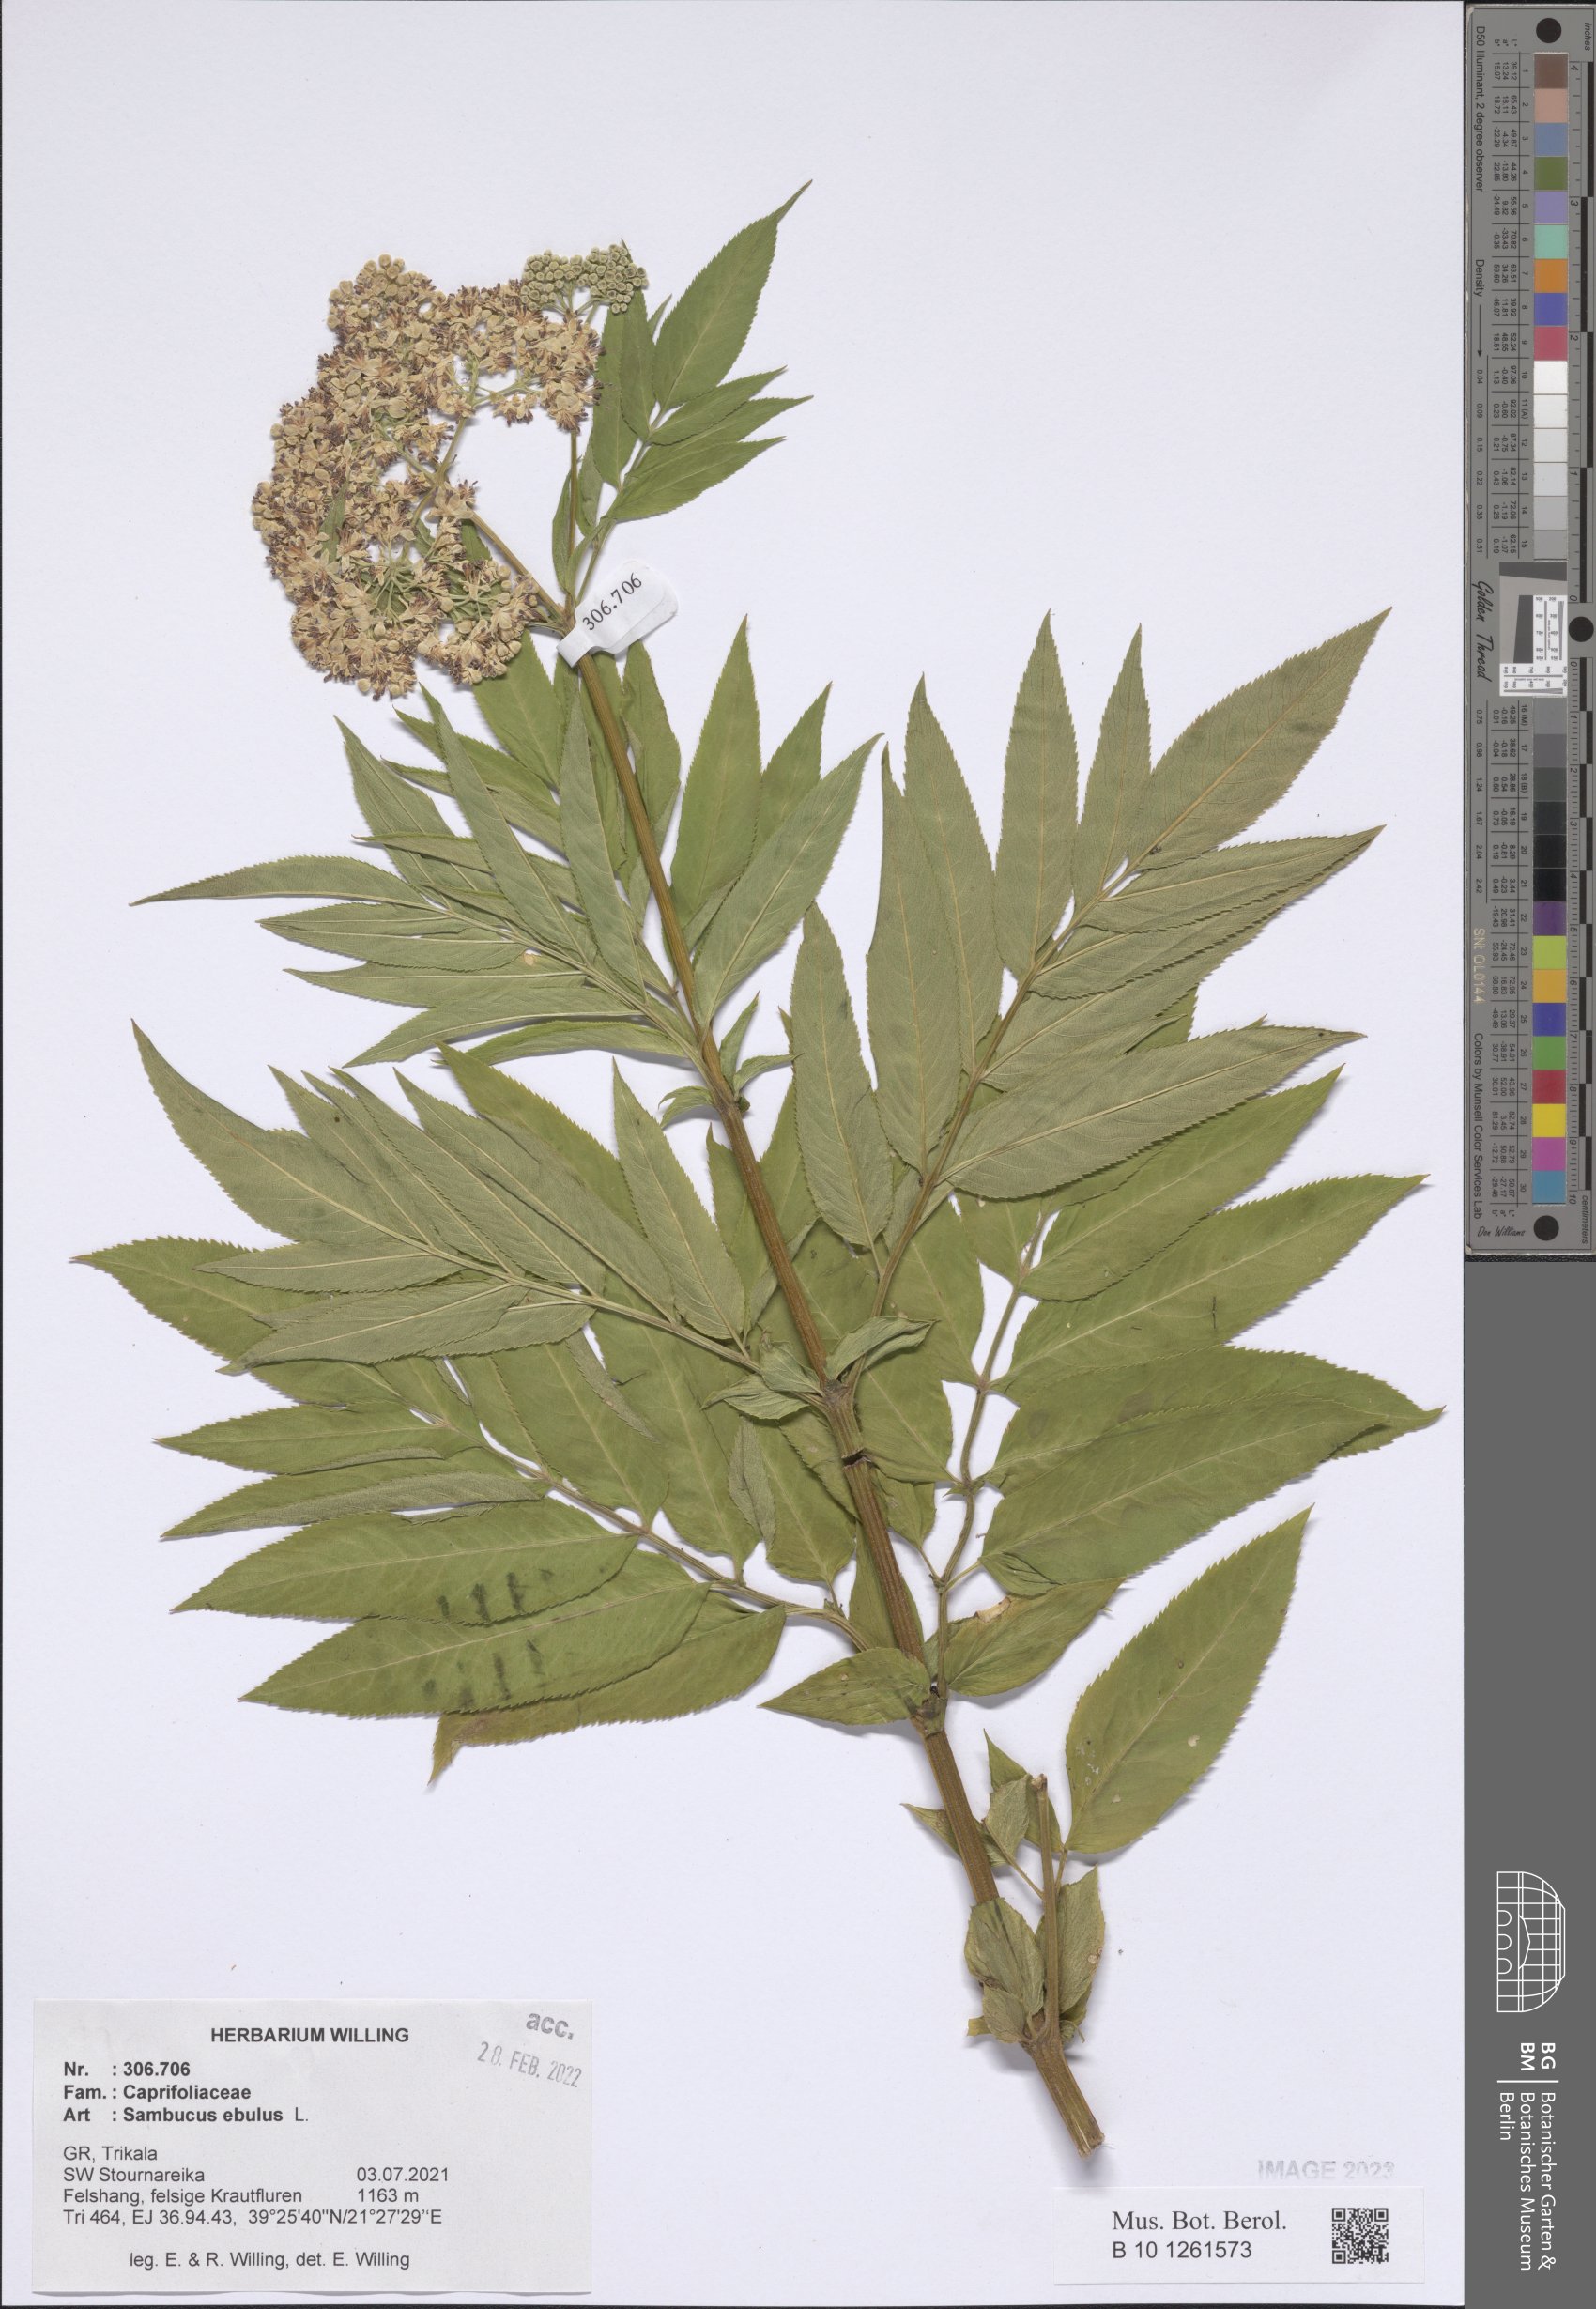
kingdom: Plantae
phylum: Tracheophyta
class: Magnoliopsida
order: Dipsacales
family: Viburnaceae
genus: Sambucus
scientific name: Sambucus ebulus
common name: Dwarf elder
